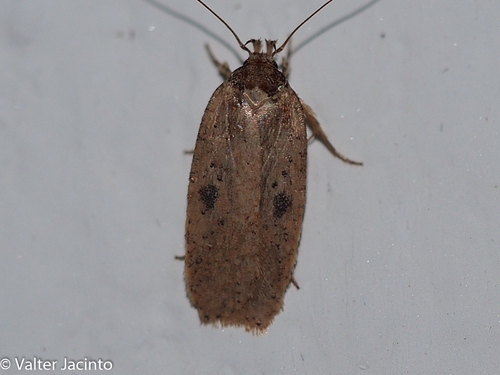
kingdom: Animalia
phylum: Arthropoda
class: Insecta
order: Lepidoptera
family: Depressariidae
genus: Agonopterix
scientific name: Agonopterix subpropinquella
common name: Ruddy flat-body
